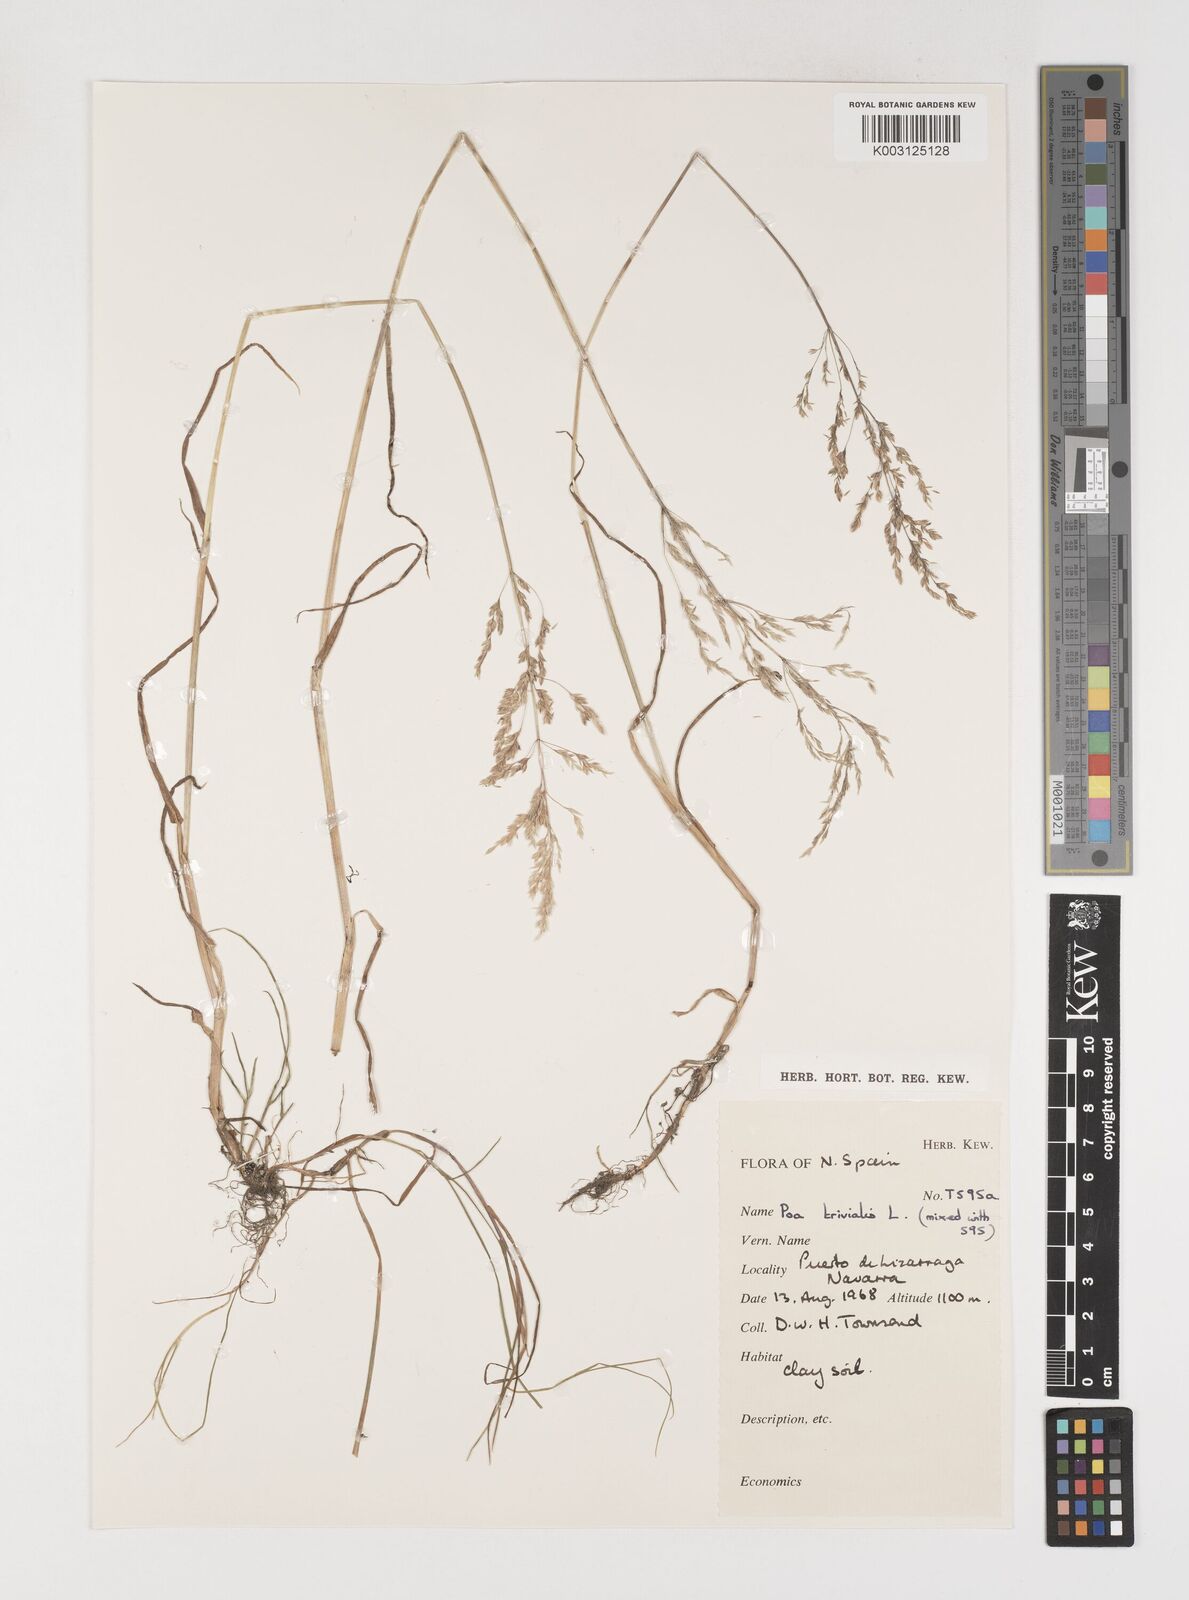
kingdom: Plantae
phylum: Tracheophyta
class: Liliopsida
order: Poales
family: Poaceae
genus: Poa
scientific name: Poa trivialis
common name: Rough bluegrass
